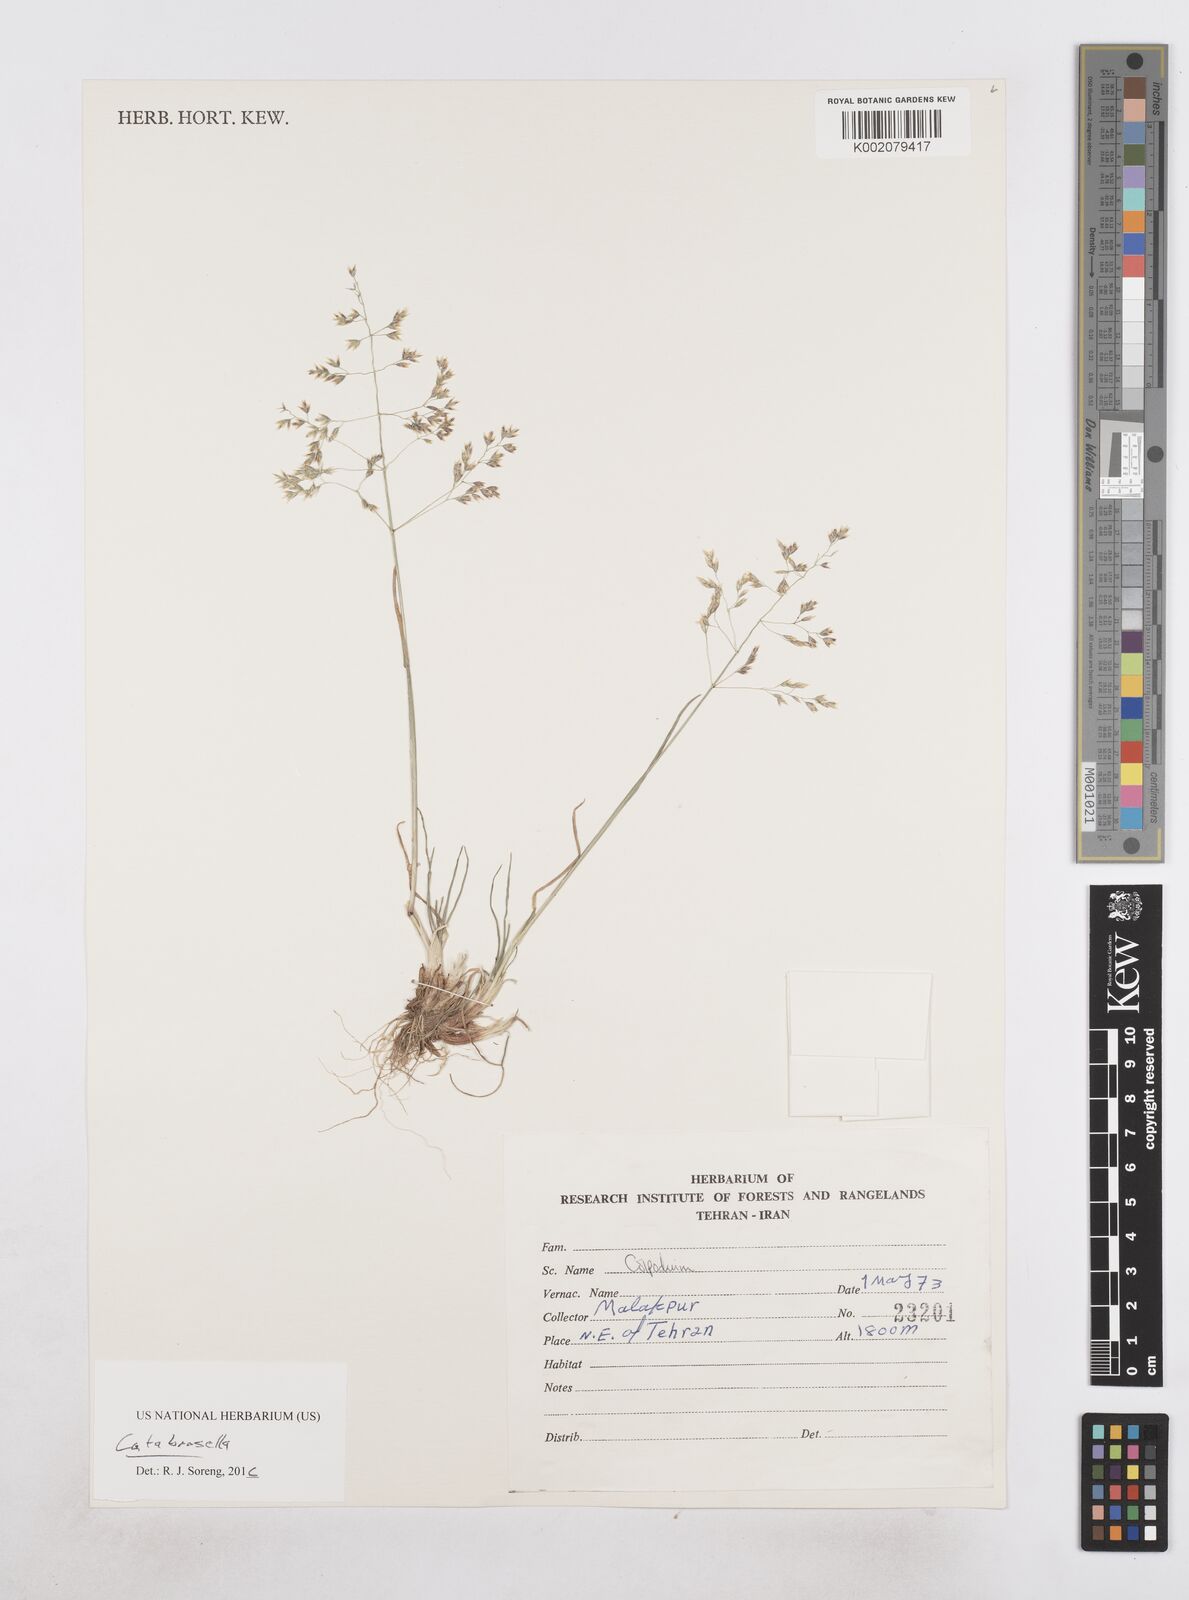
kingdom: Plantae
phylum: Tracheophyta
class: Liliopsida
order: Poales
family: Poaceae
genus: Colpodium
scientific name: Colpodium
